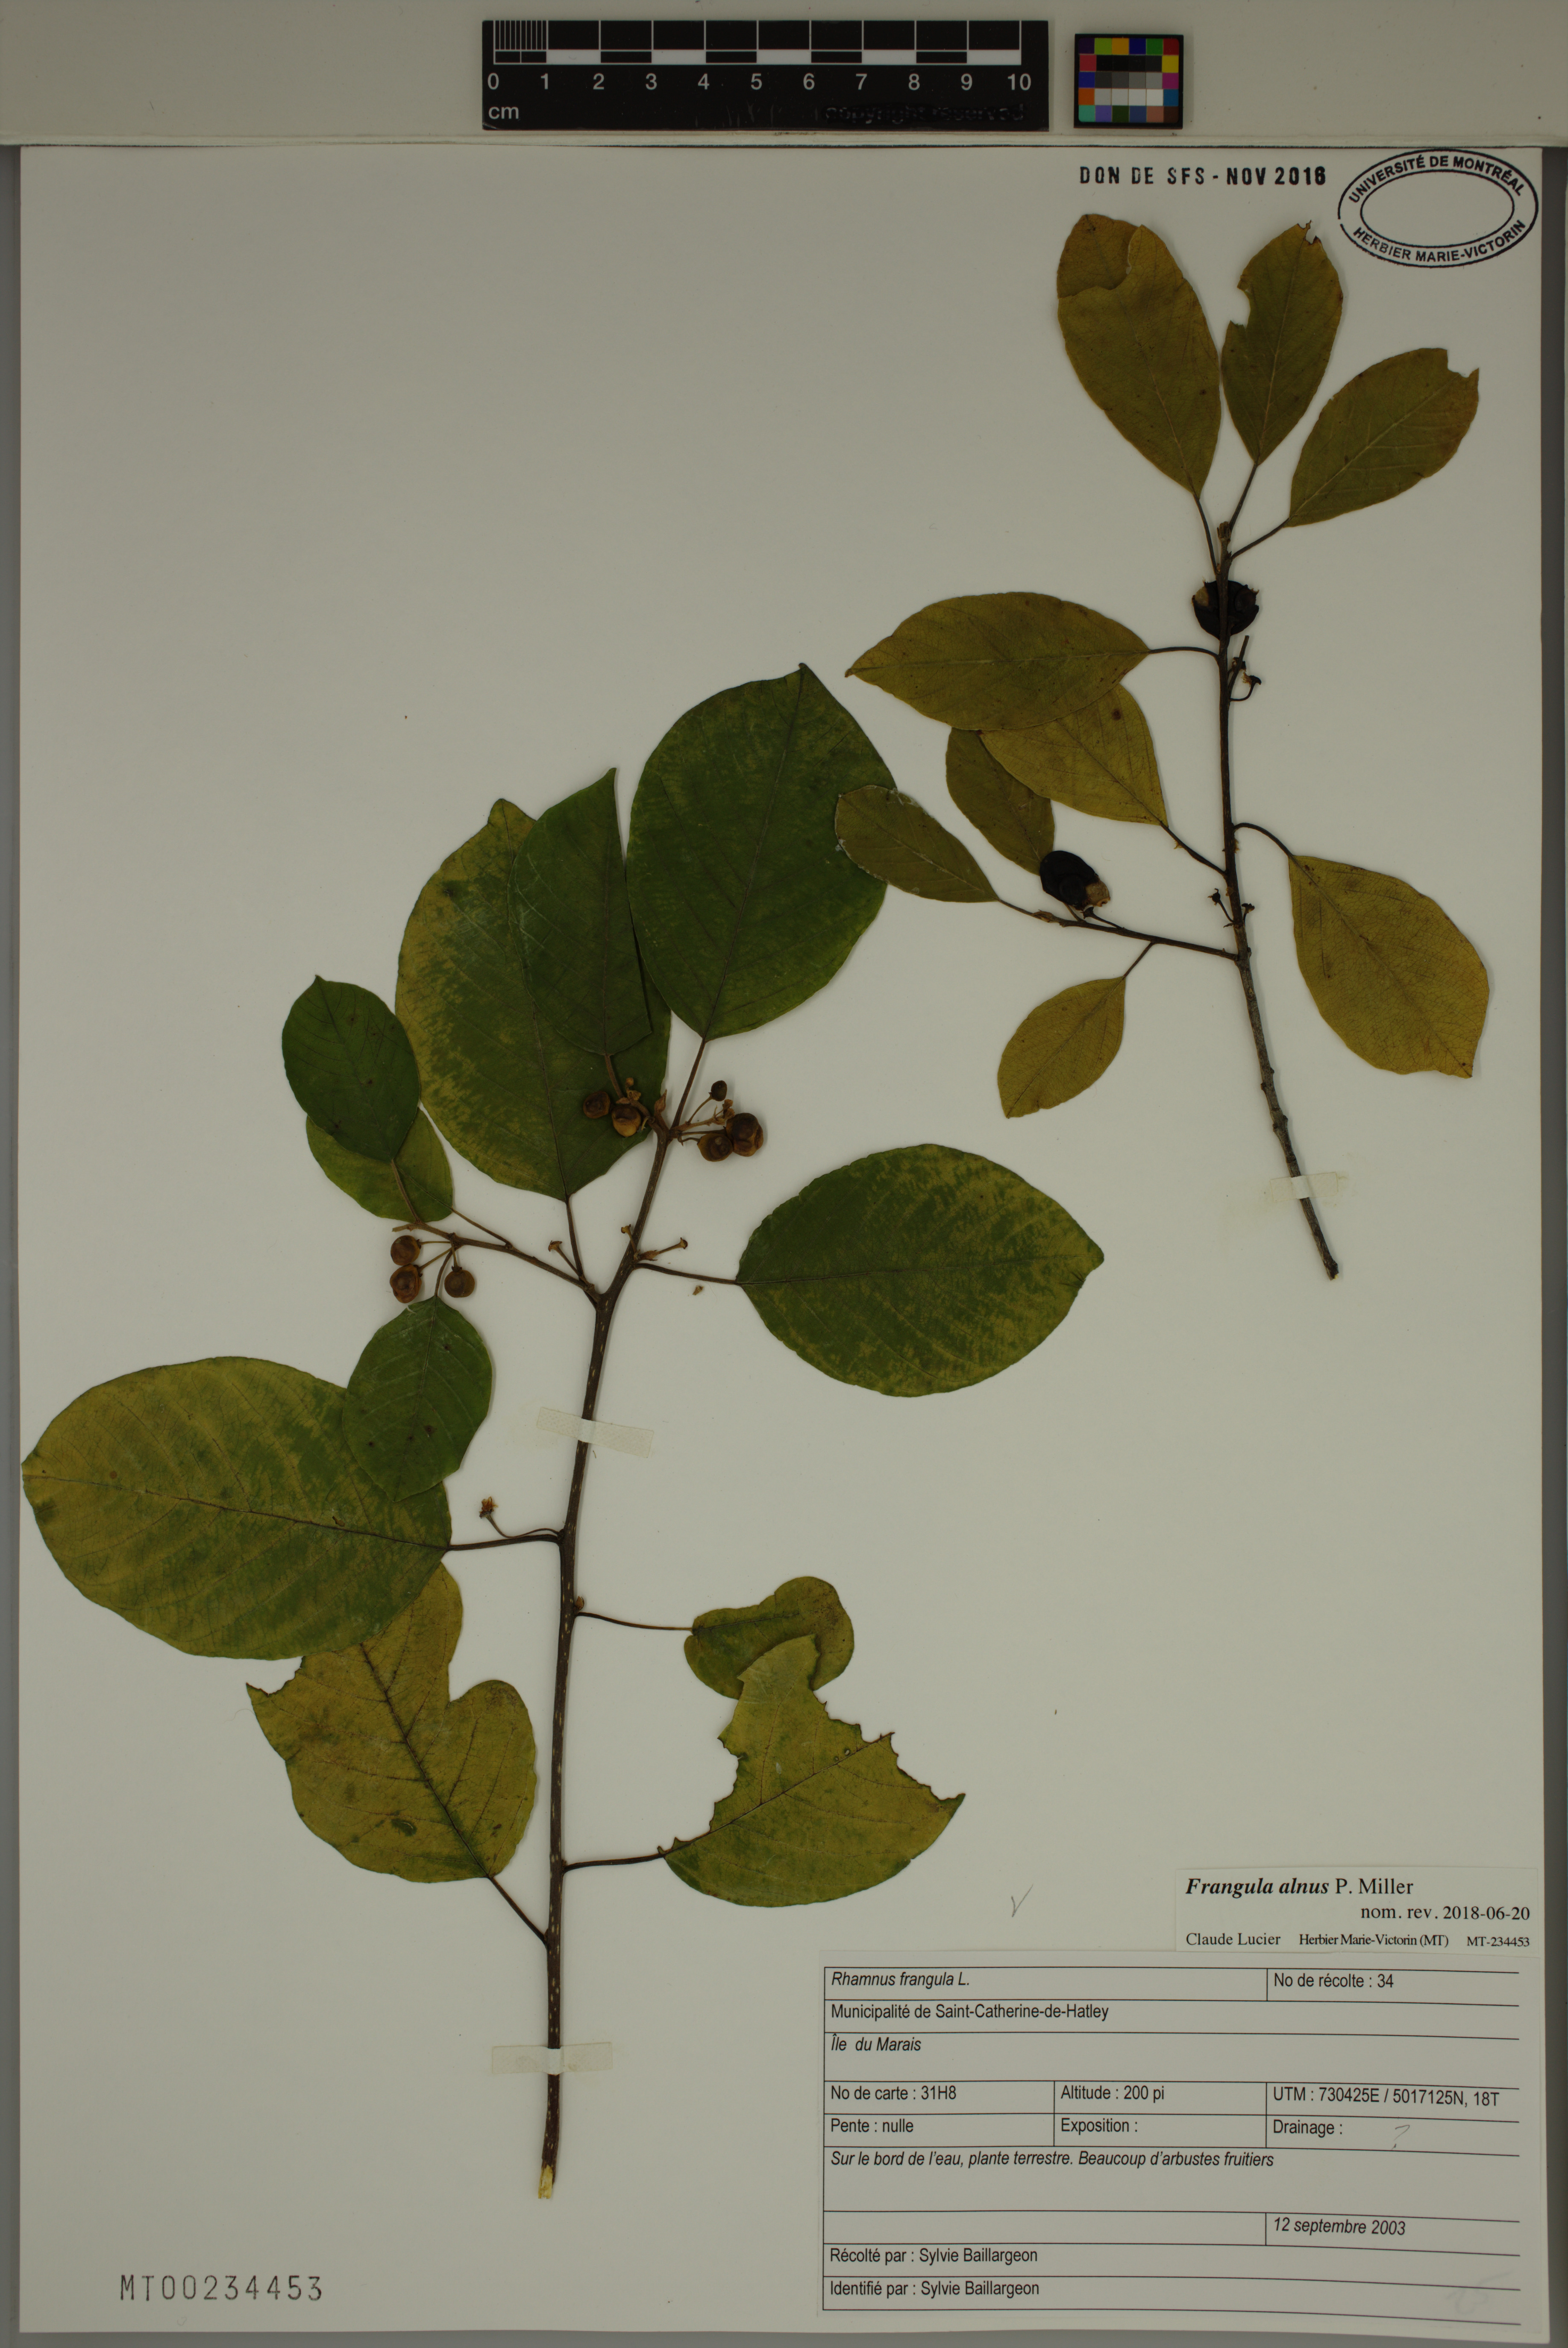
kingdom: Plantae
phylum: Tracheophyta
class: Magnoliopsida
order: Rosales
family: Rhamnaceae
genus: Frangula
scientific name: Frangula alnus
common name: Alder buckthorn
